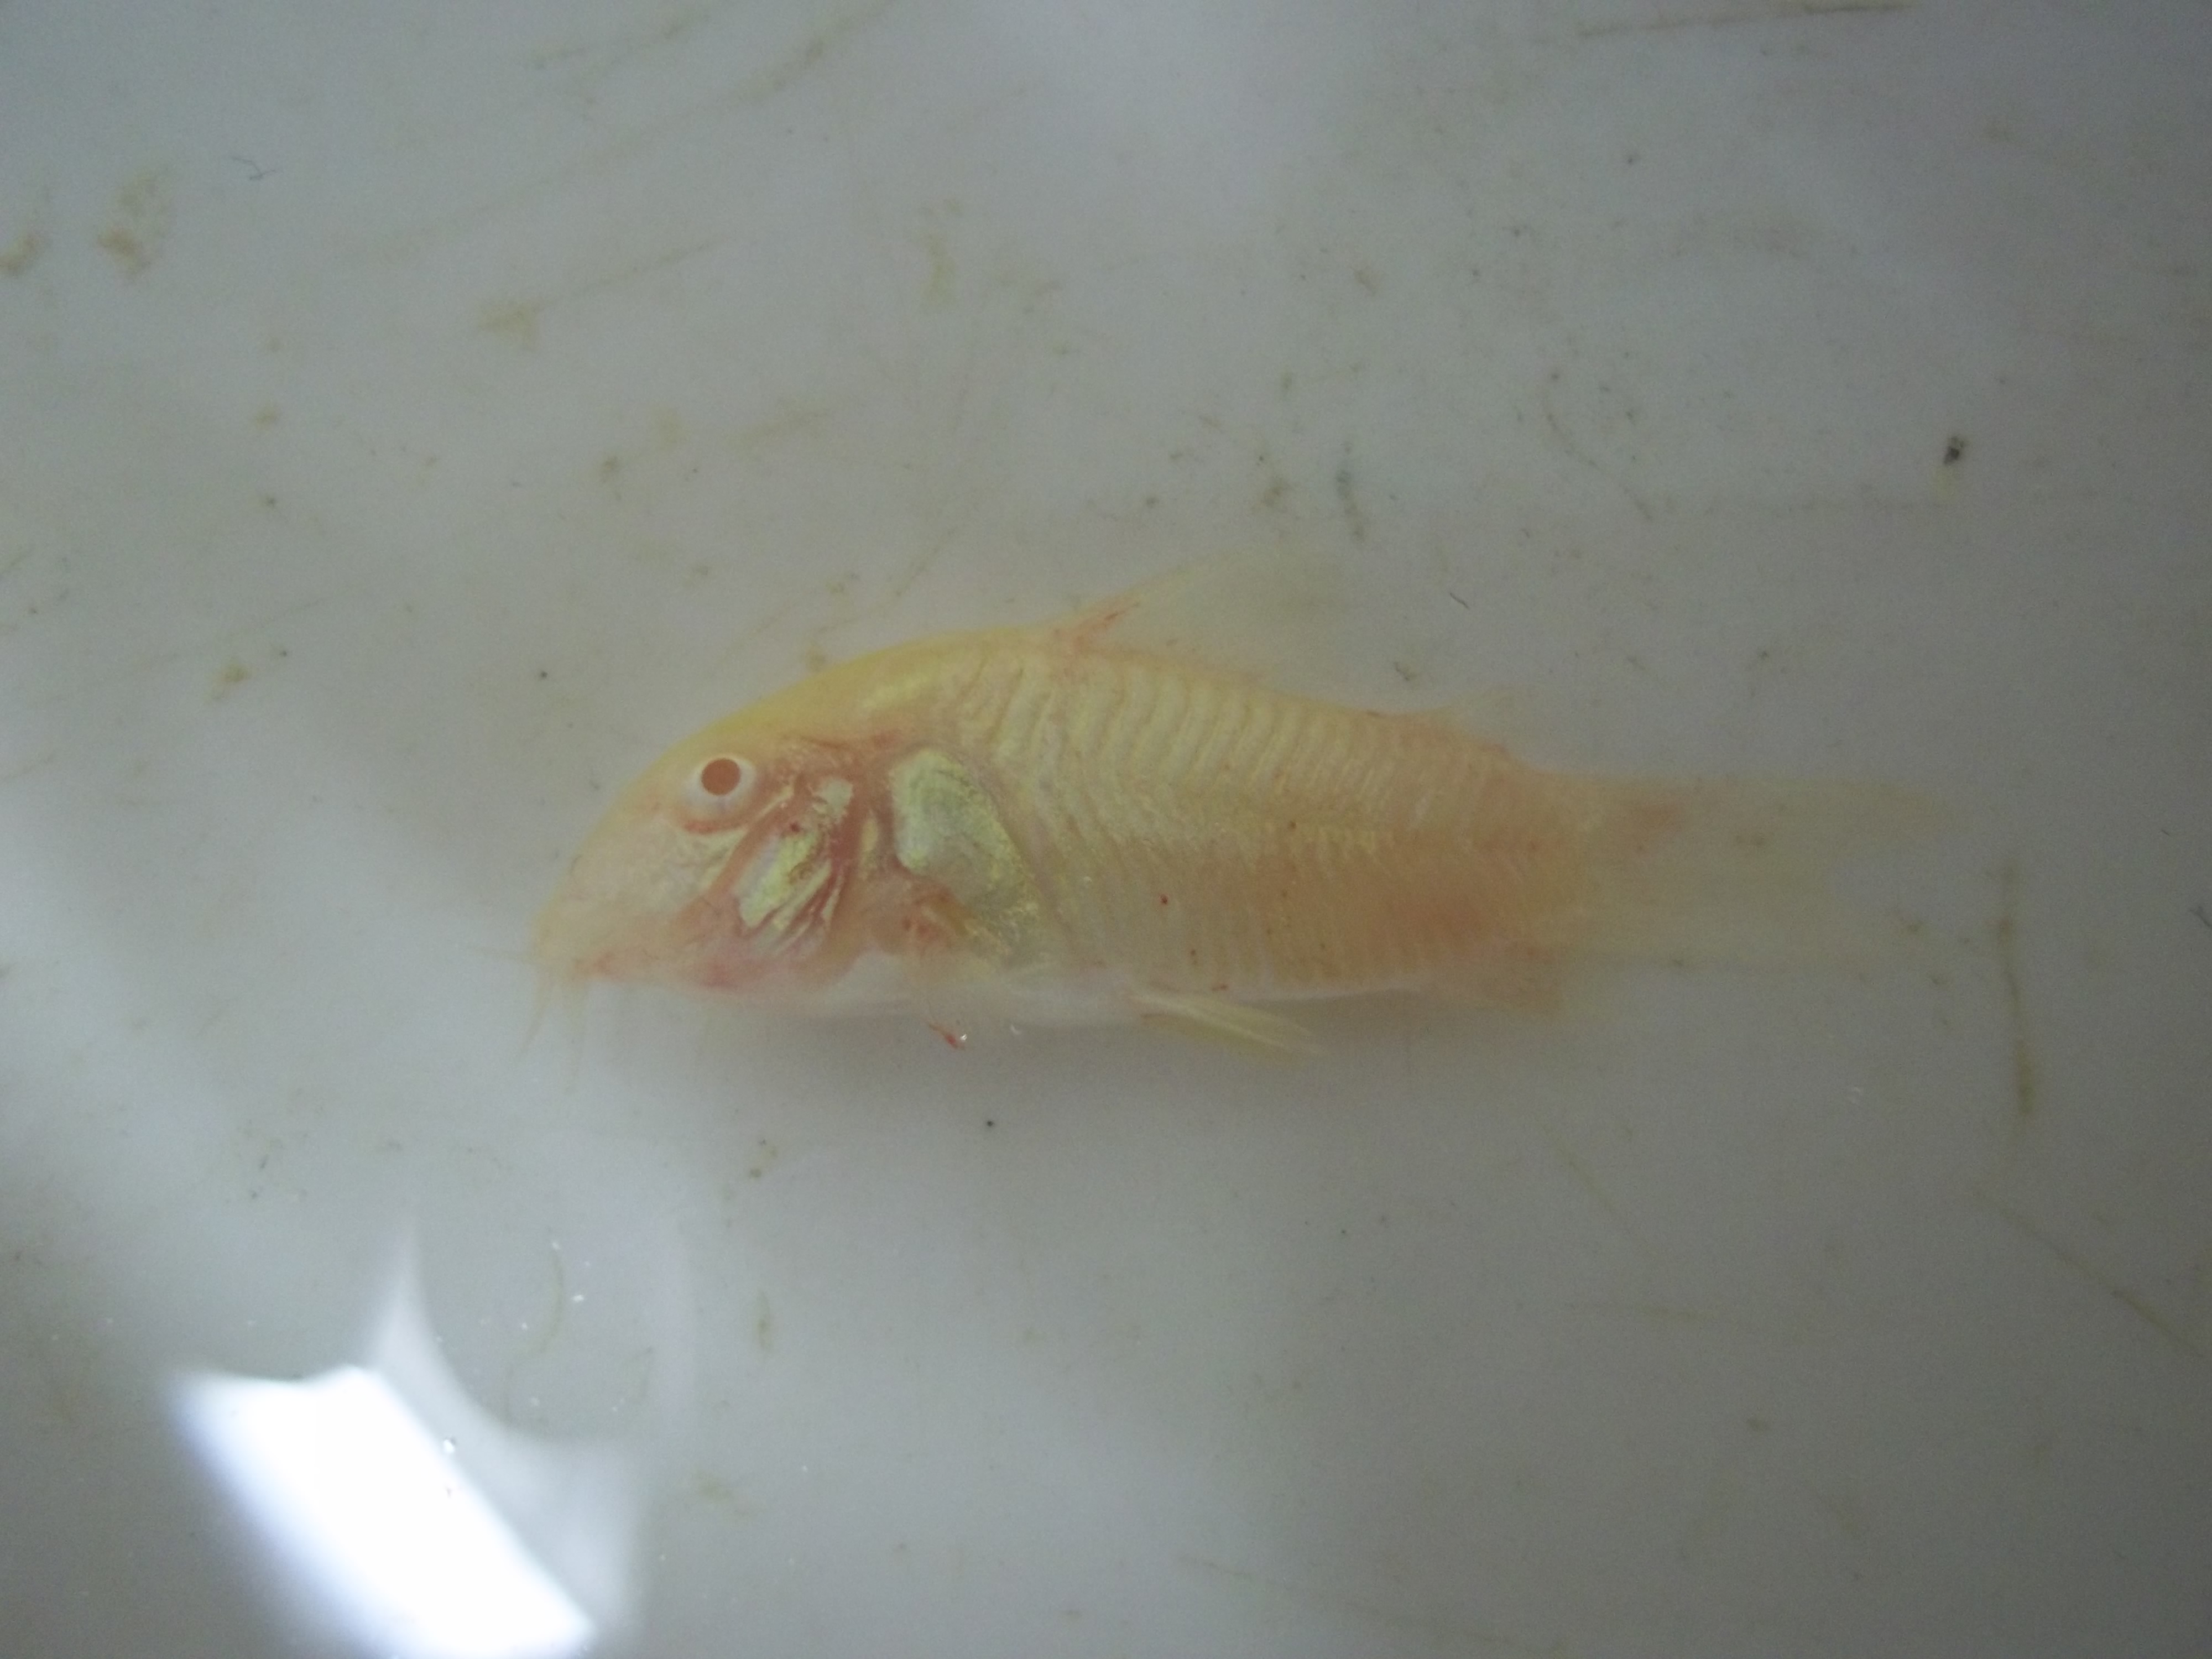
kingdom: Animalia
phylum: Chordata
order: Siluriformes
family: Callichthyidae
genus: Corydoras
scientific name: Corydoras
